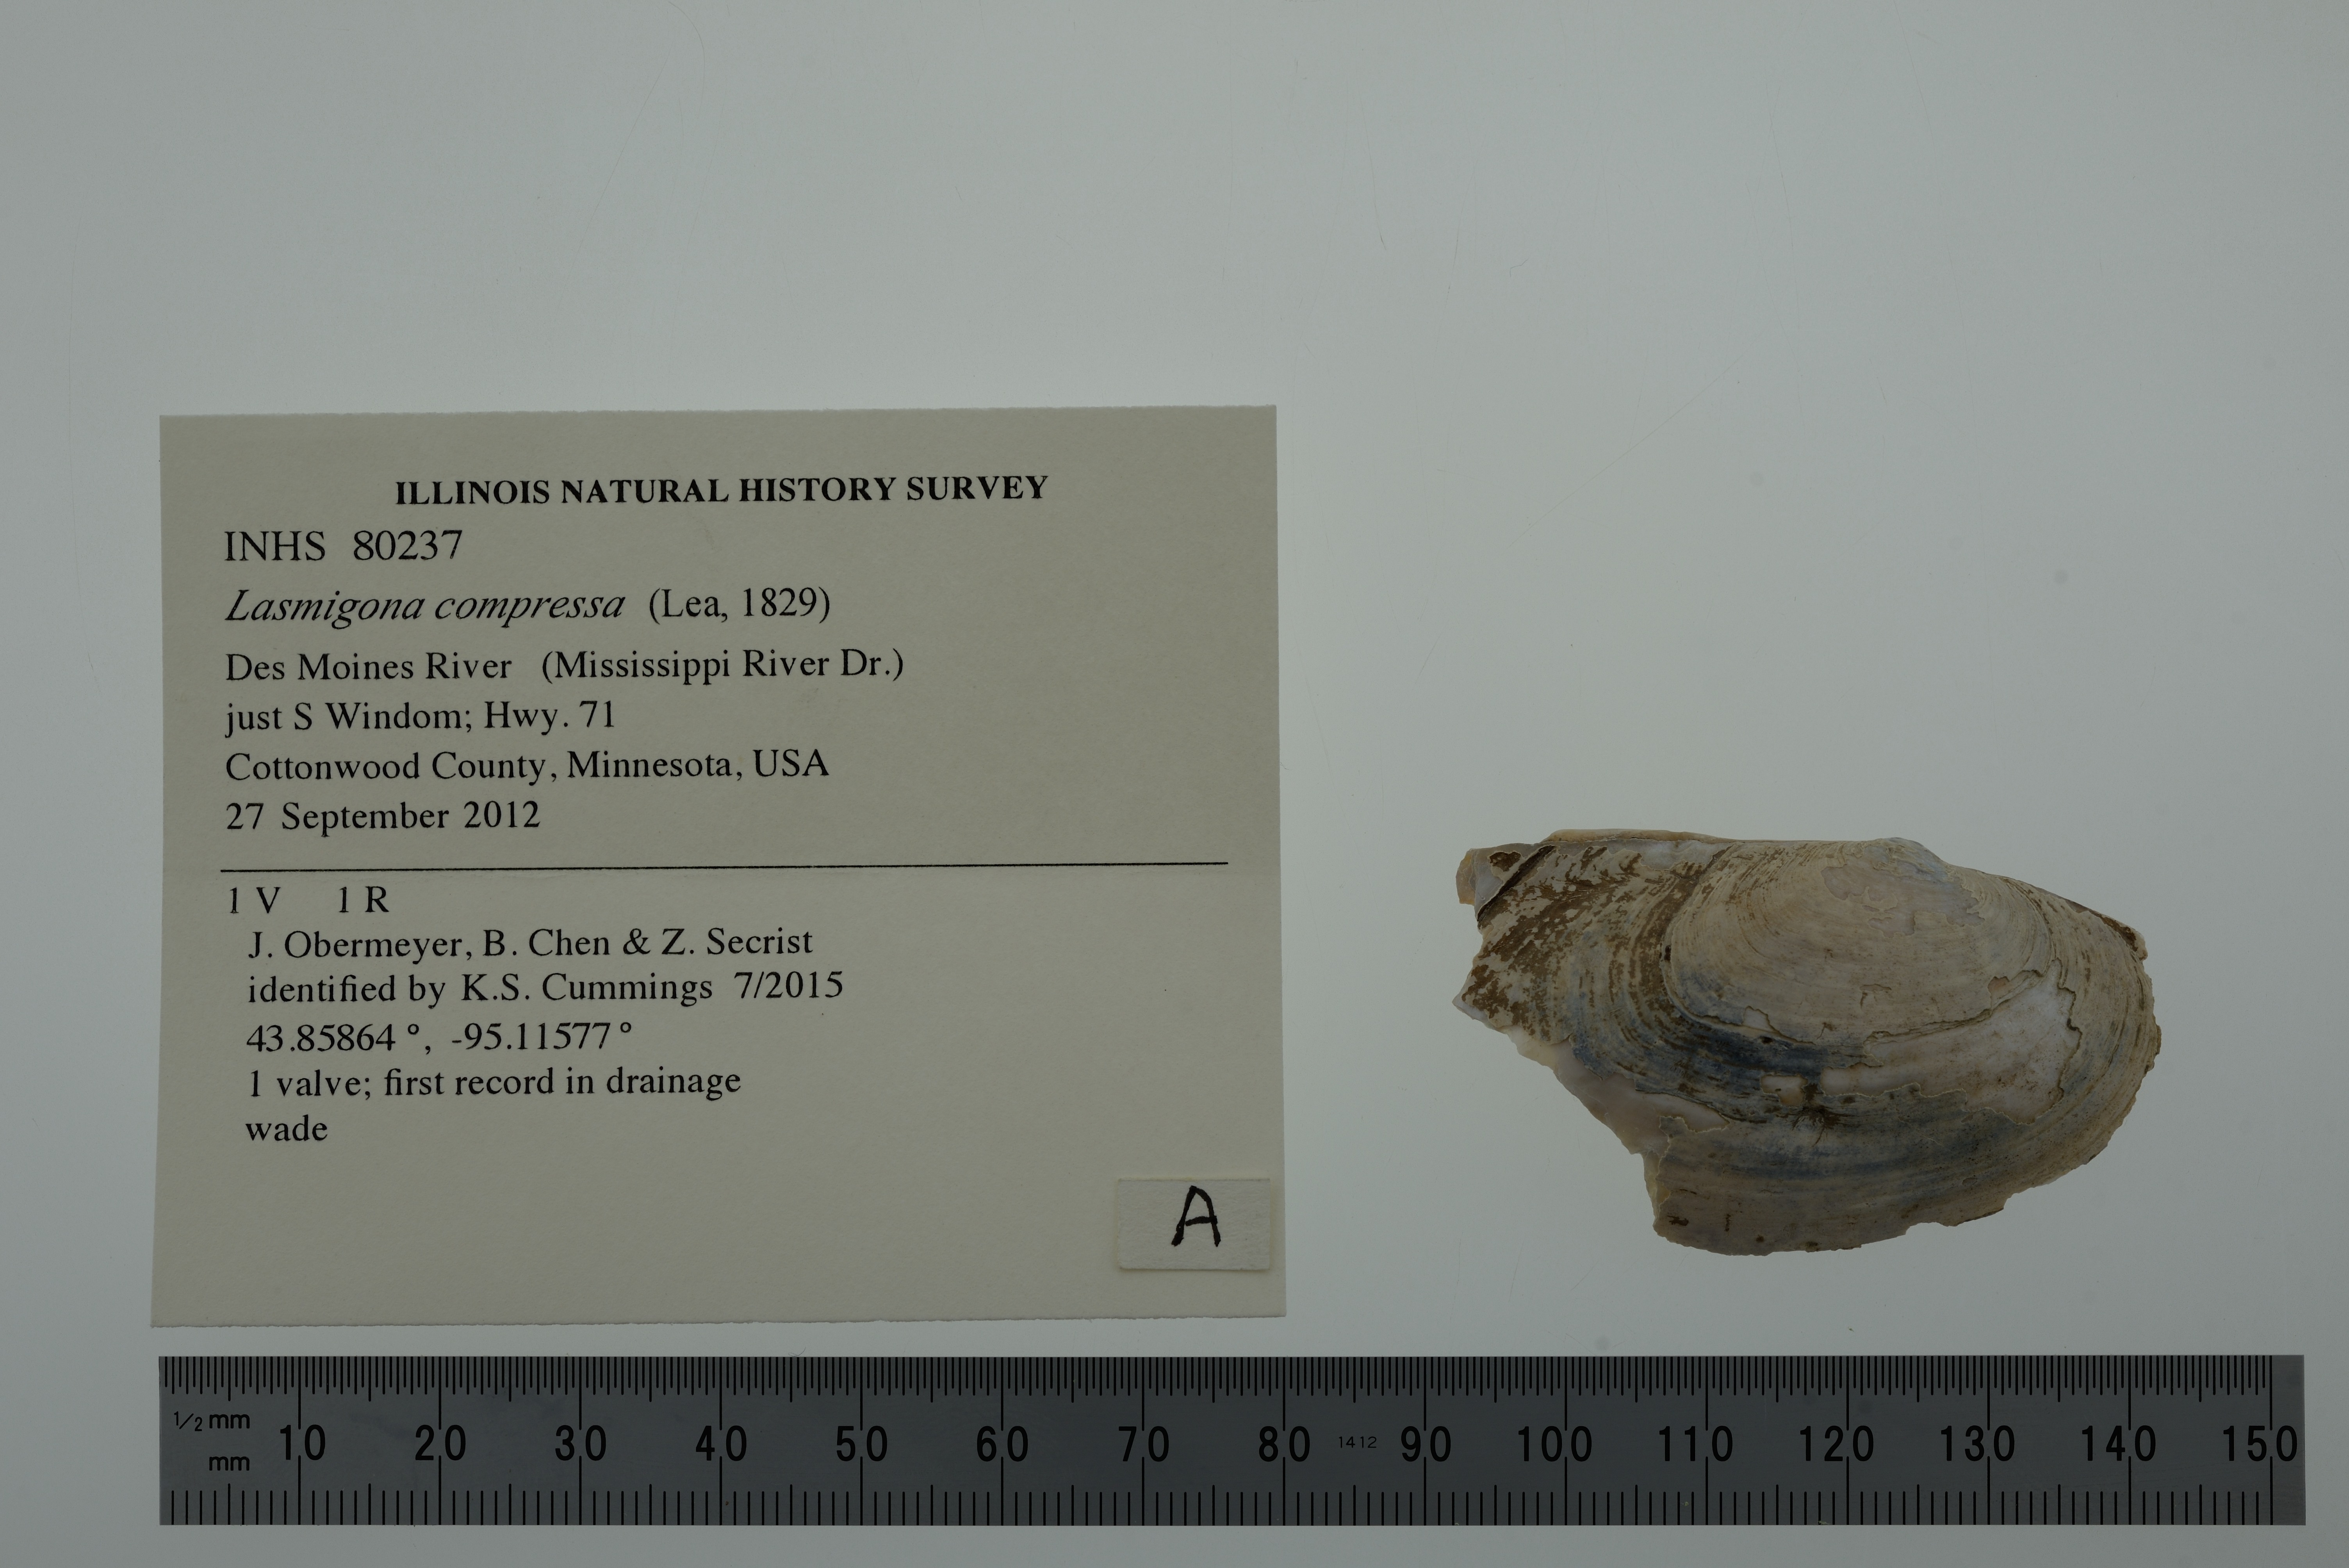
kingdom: Animalia
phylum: Mollusca
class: Bivalvia
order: Unionida
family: Unionidae
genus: Lasmigona
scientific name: Lasmigona compressa
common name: Creek heelsplitter
